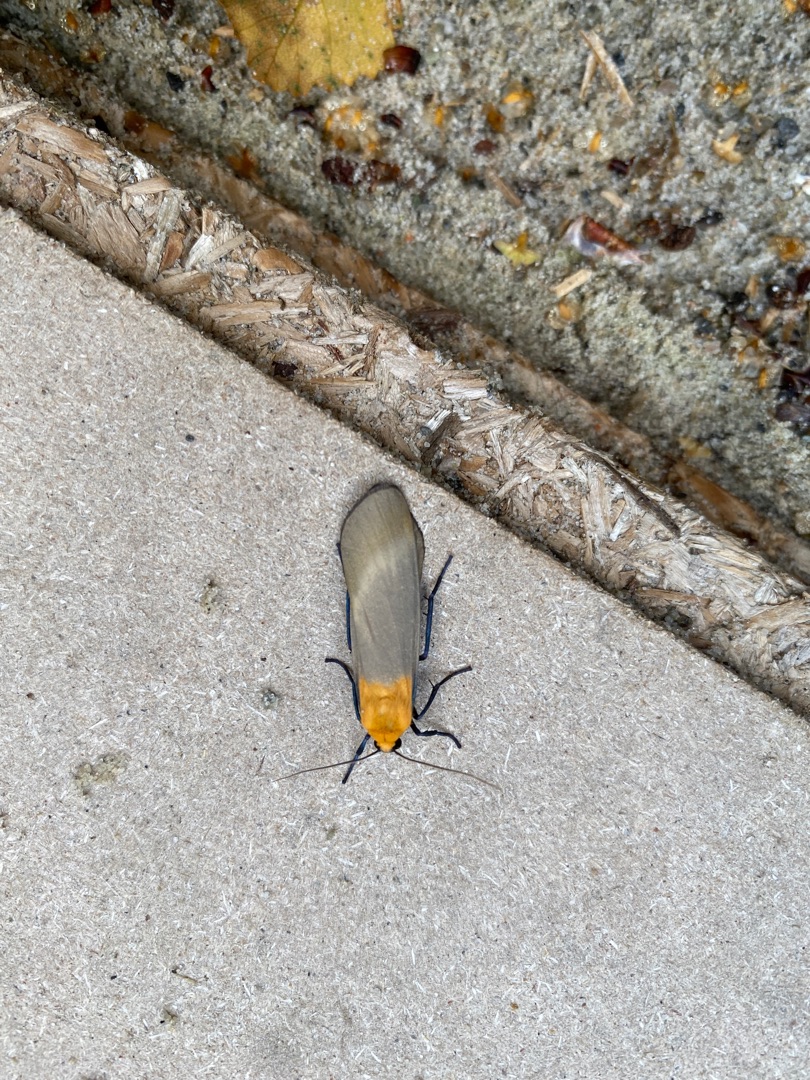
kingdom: Animalia
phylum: Arthropoda
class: Insecta
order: Lepidoptera
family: Erebidae
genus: Lithosia
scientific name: Lithosia quadra
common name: Stor lavspinder
